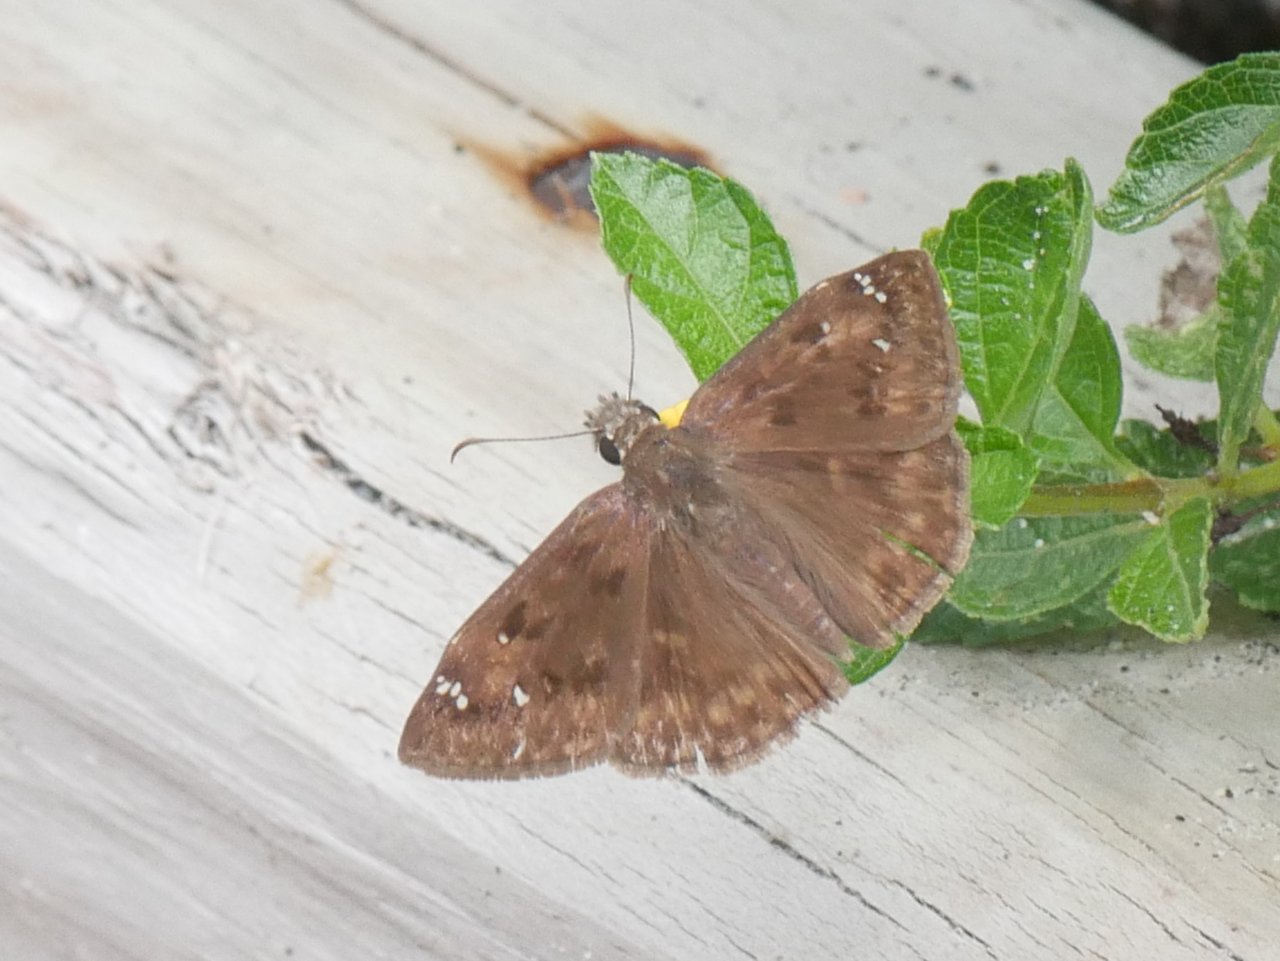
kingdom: Animalia
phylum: Arthropoda
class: Insecta
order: Lepidoptera
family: Hesperiidae
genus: Gesta
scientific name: Gesta
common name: Horace's Duskywing
